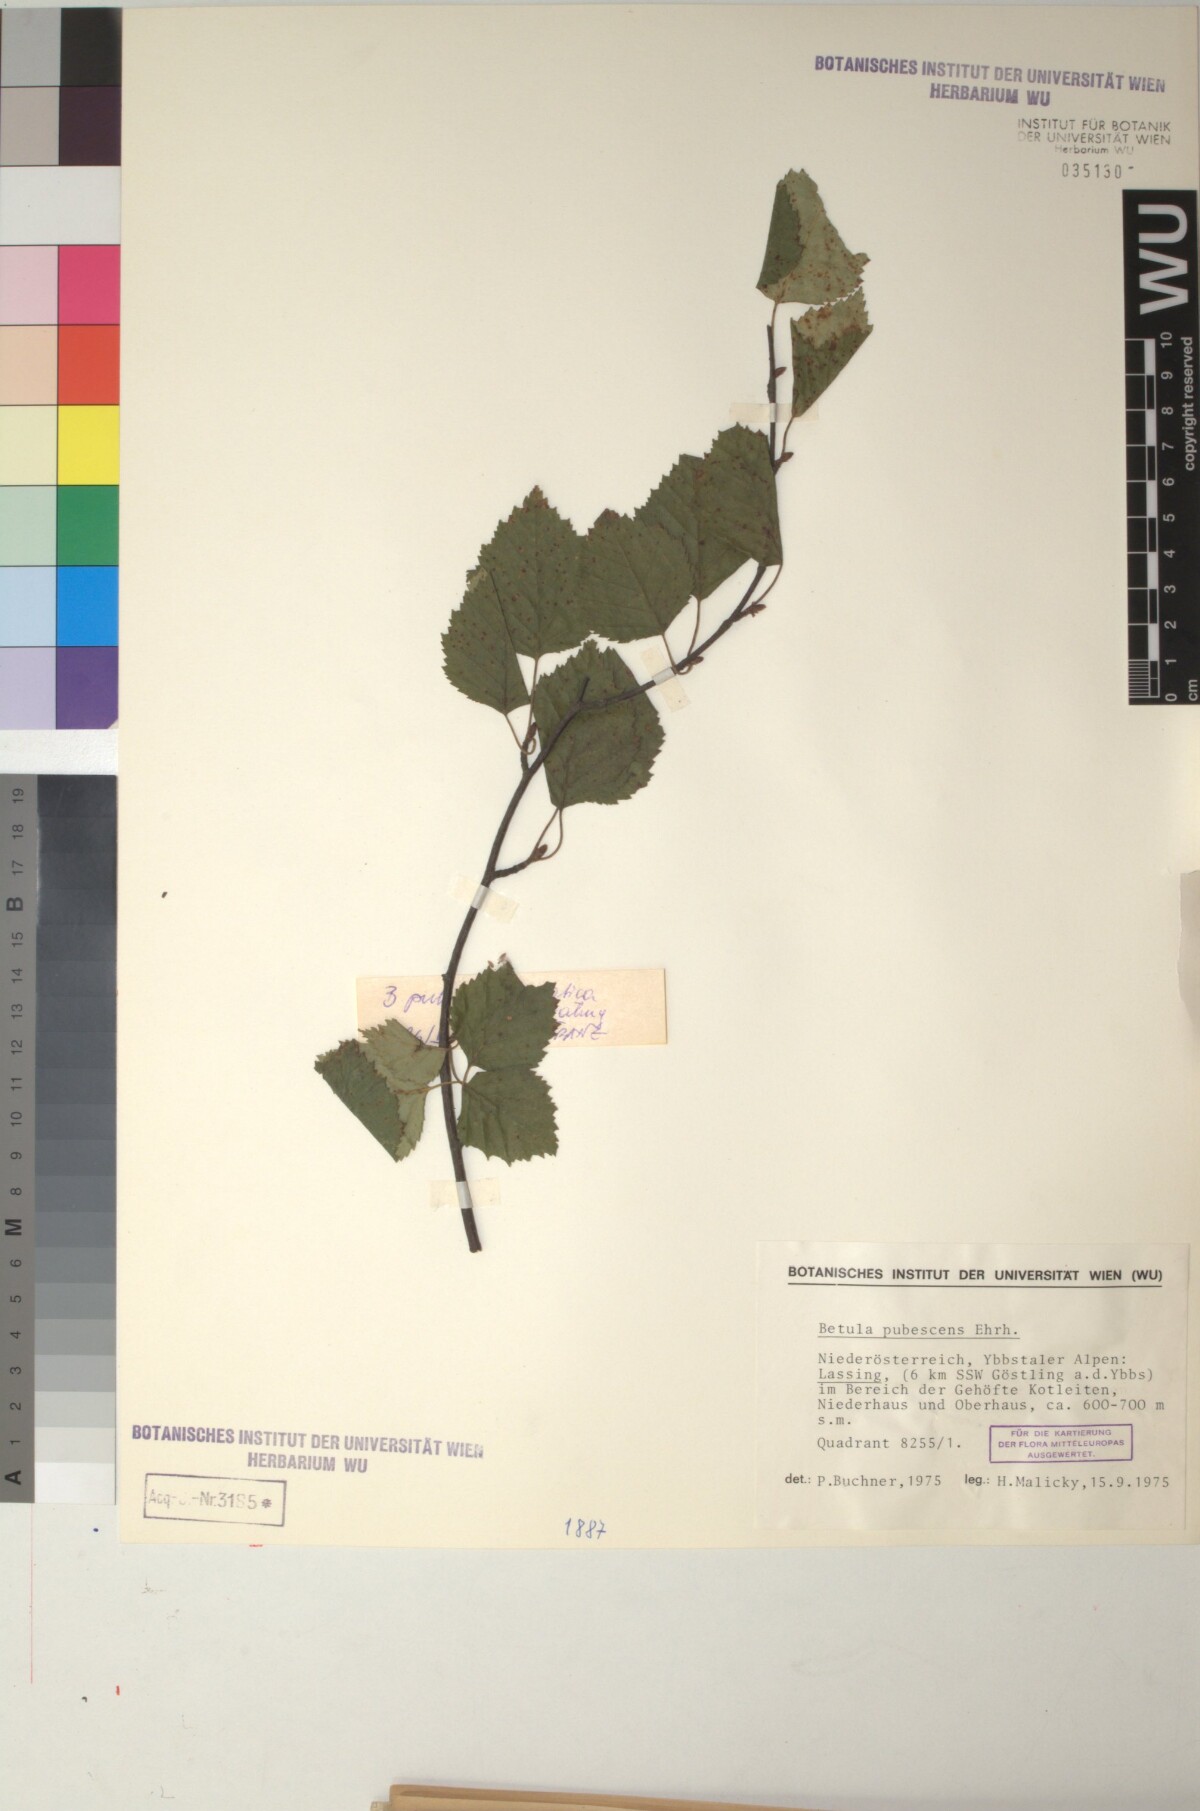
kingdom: Plantae
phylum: Tracheophyta
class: Magnoliopsida
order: Fagales
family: Betulaceae
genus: Betula
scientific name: Betula pubescens
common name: Downy birch
